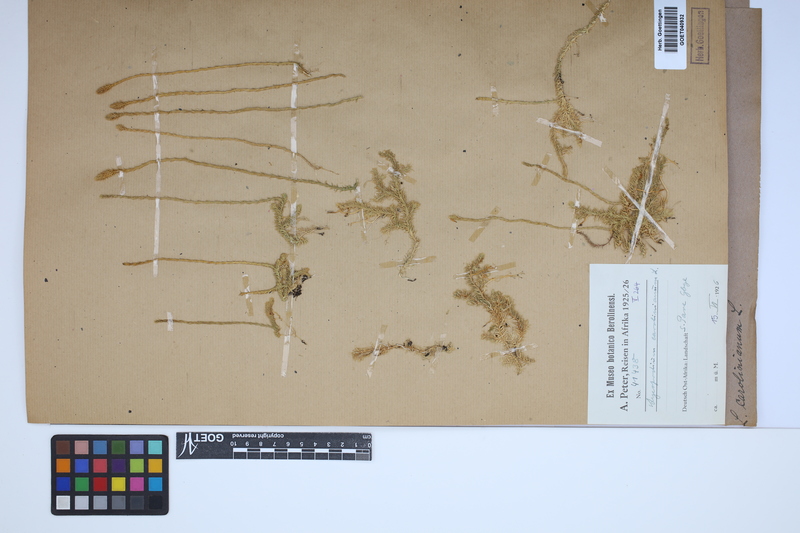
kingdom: Plantae
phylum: Tracheophyta
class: Lycopodiopsida
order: Lycopodiales
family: Lycopodiaceae
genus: Brownseya
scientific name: Brownseya serpentina
